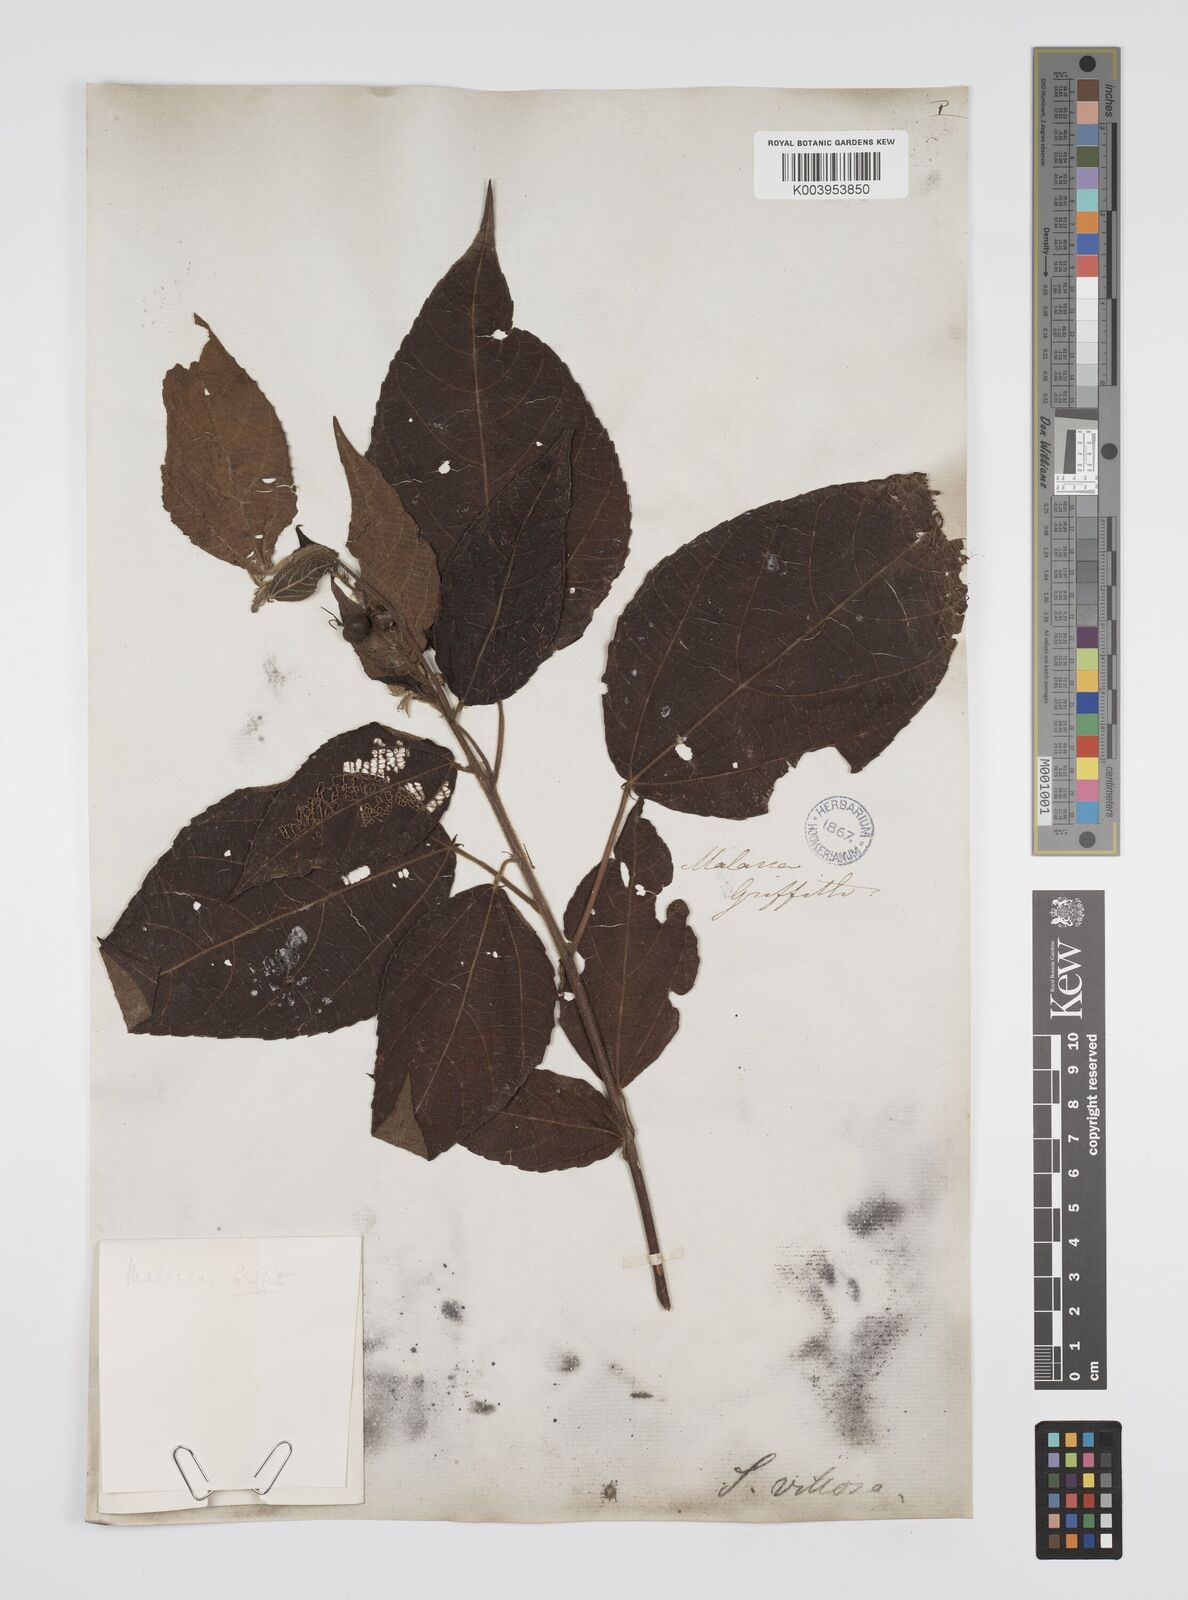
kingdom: Plantae
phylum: Tracheophyta
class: Magnoliopsida
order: Malpighiales
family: Euphorbiaceae
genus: Alchornea
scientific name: Alchornea tiliifolia
